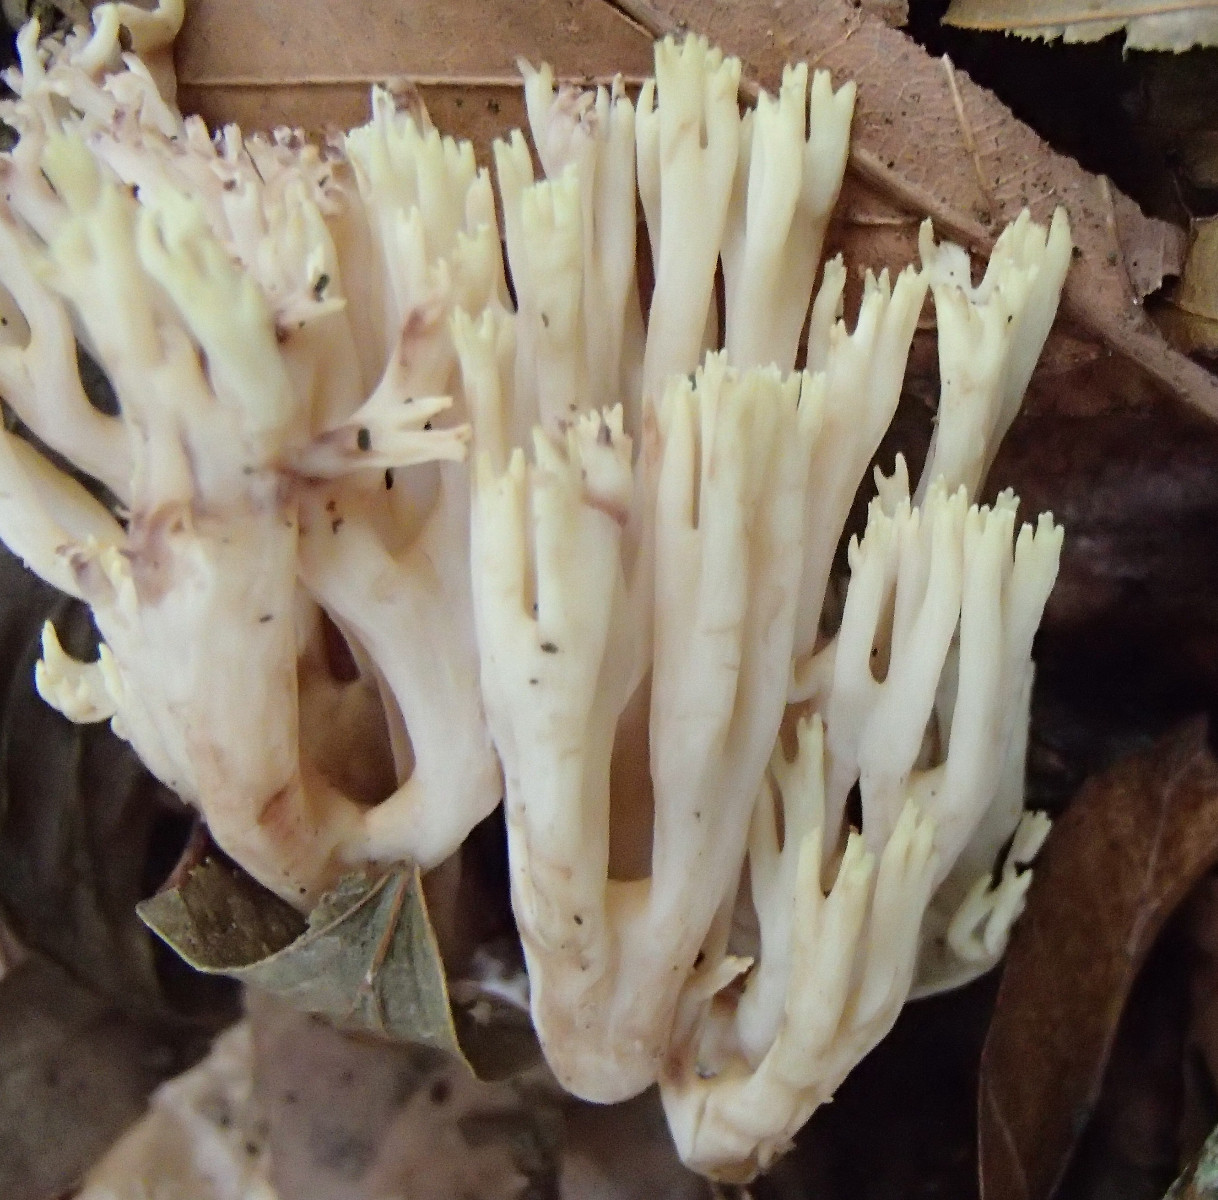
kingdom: Fungi
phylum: Basidiomycota
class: Agaricomycetes
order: Gomphales
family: Gomphaceae
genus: Ramaria
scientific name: Ramaria stricta
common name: rank koralsvamp
